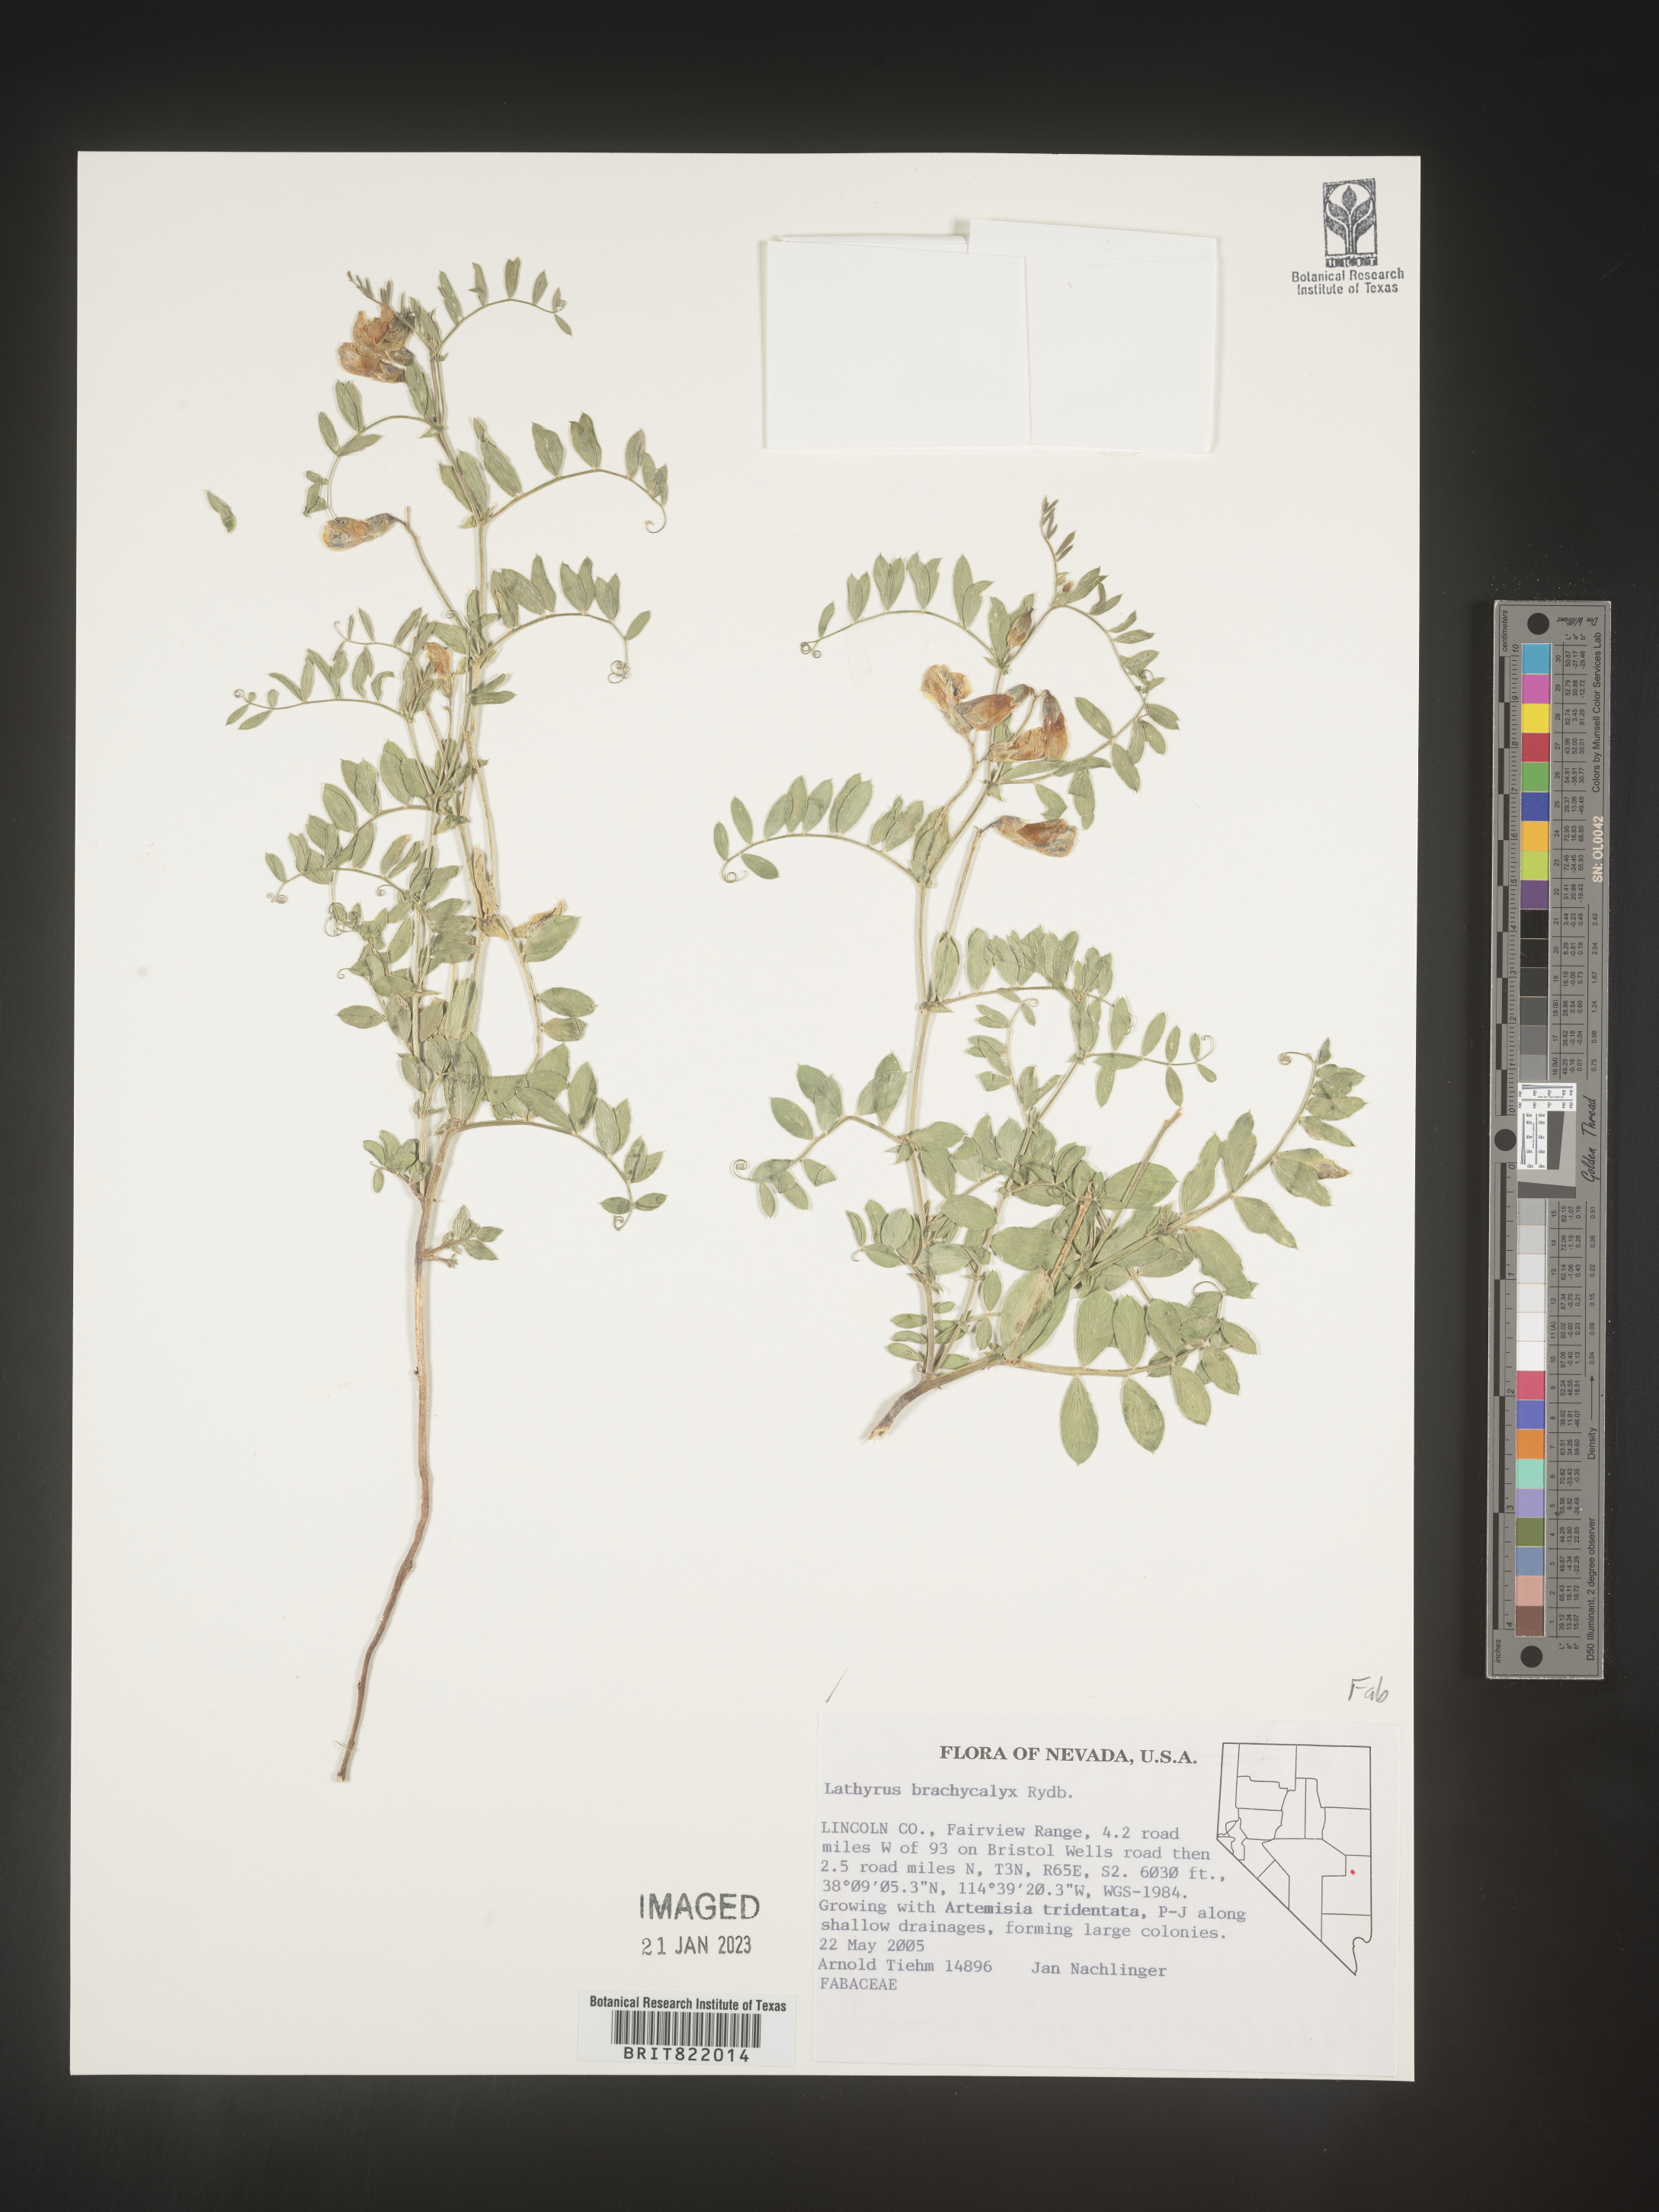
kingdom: Plantae
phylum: Tracheophyta
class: Magnoliopsida
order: Fabales
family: Fabaceae
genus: Lathyrus
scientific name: Lathyrus
